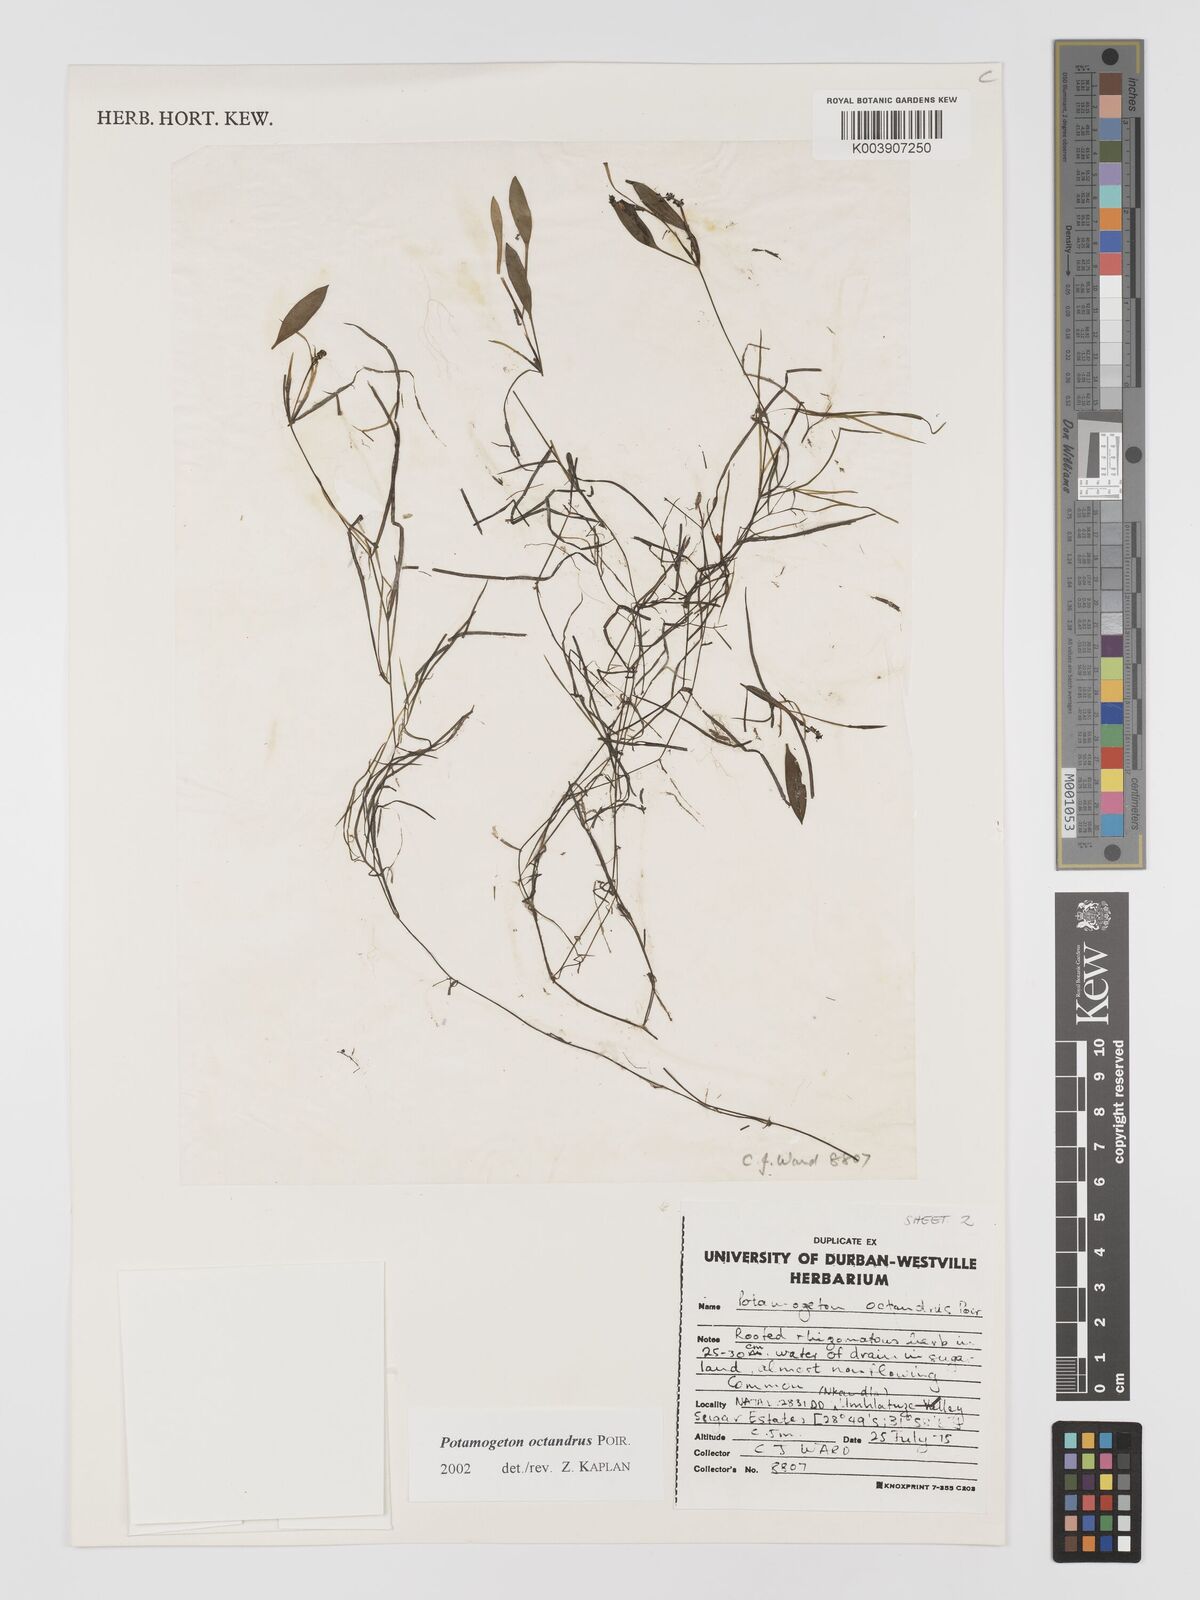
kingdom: Plantae
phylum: Tracheophyta
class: Liliopsida
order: Alismatales
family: Potamogetonaceae
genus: Potamogeton
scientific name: Potamogeton octandrus
